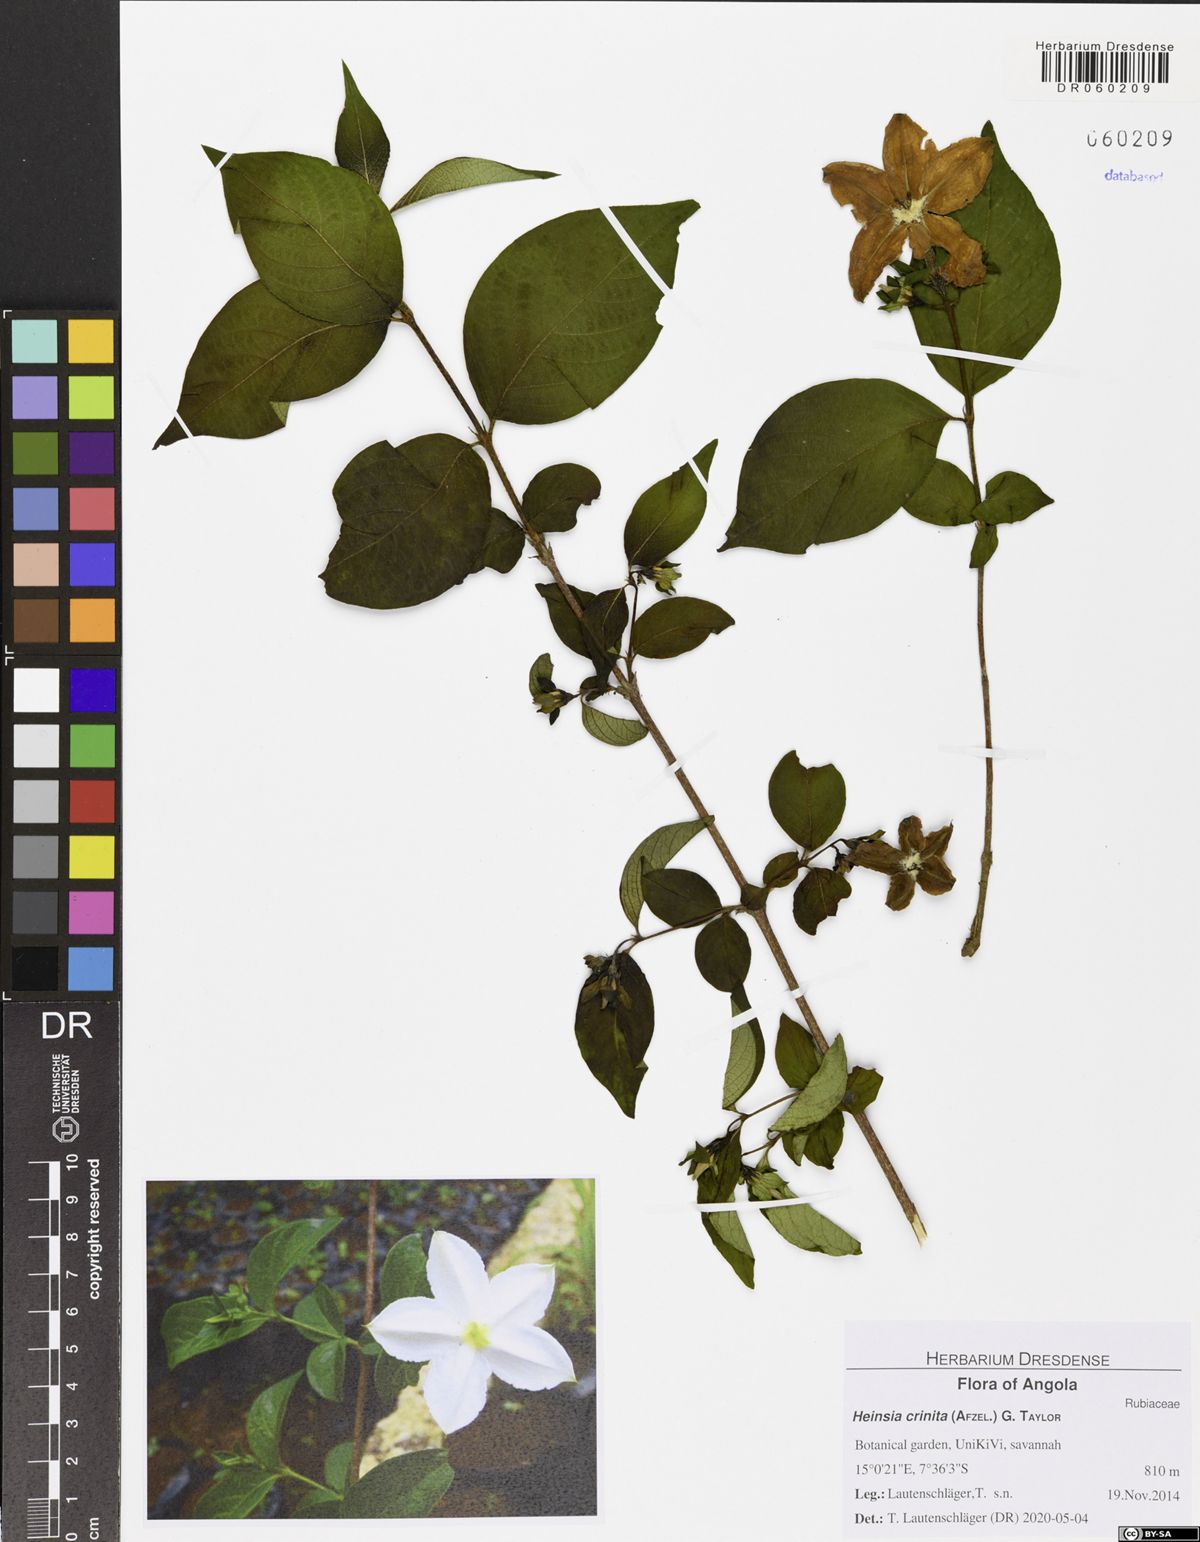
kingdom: Plantae
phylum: Tracheophyta
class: Magnoliopsida
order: Gentianales
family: Rubiaceae
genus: Heinsia
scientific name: Heinsia crinita
